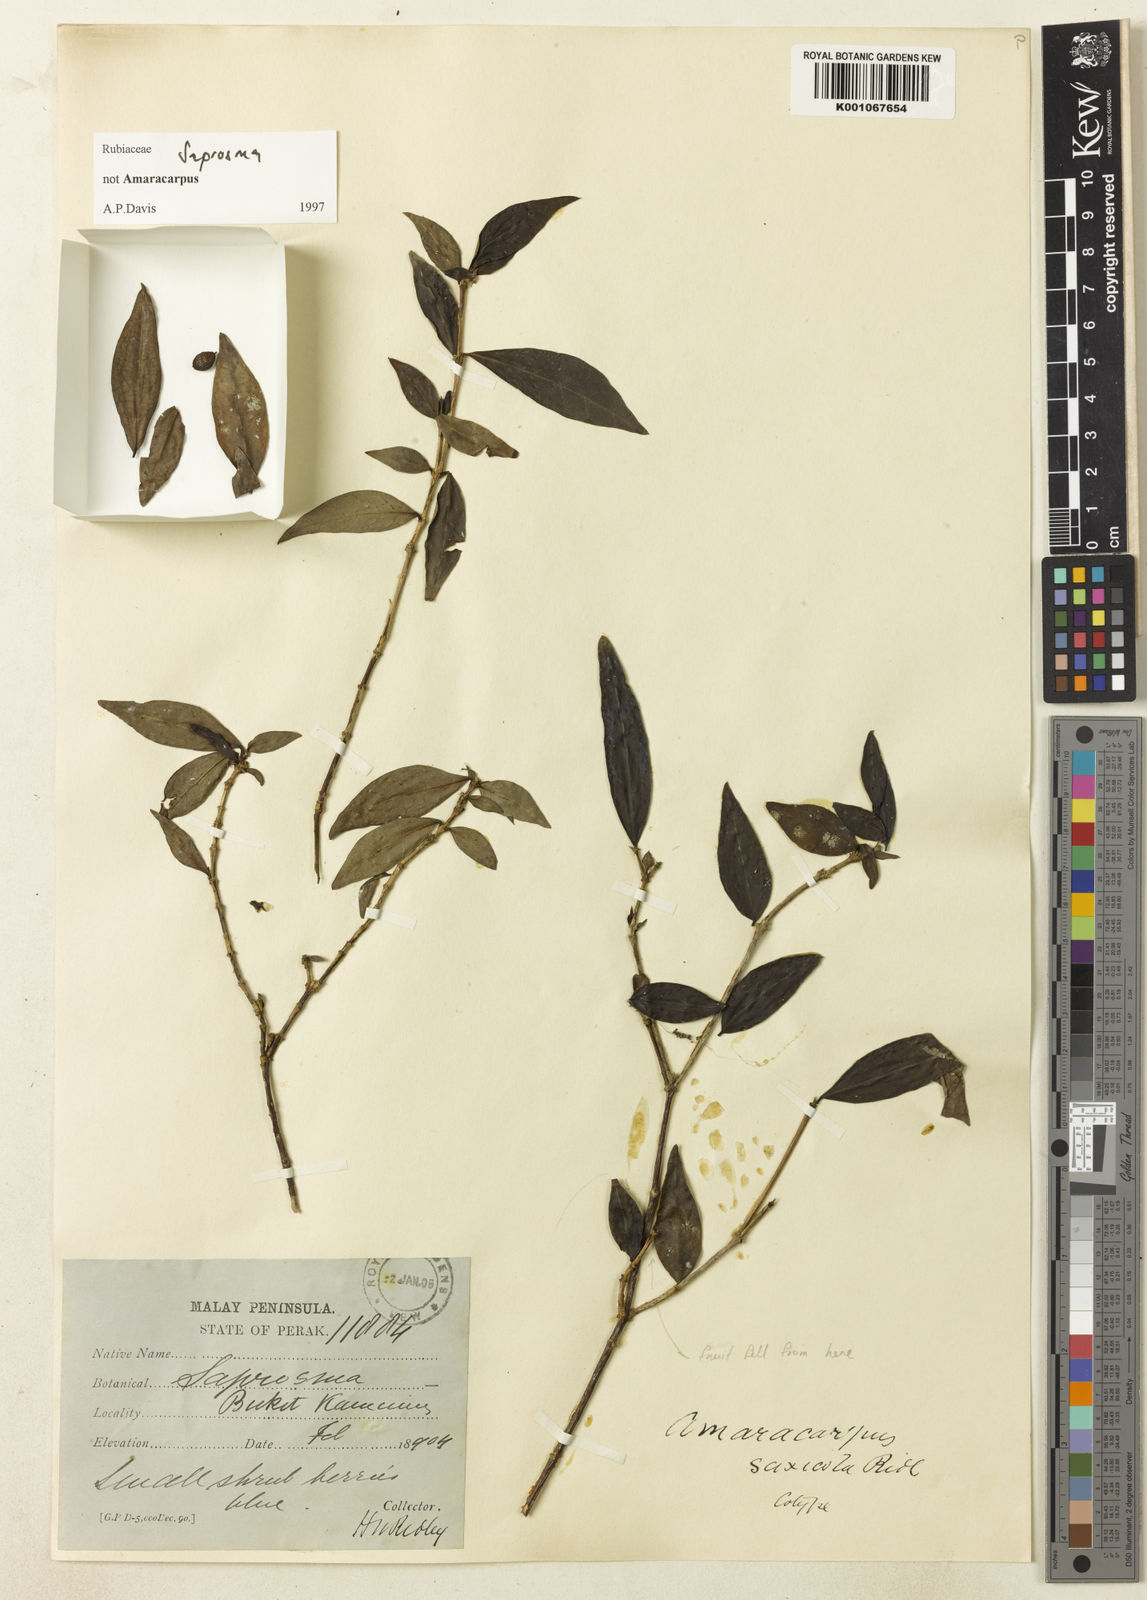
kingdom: Plantae
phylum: Tracheophyta
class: Magnoliopsida
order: Gentianales
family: Rubiaceae
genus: Saprosma
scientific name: Saprosma saxicola
